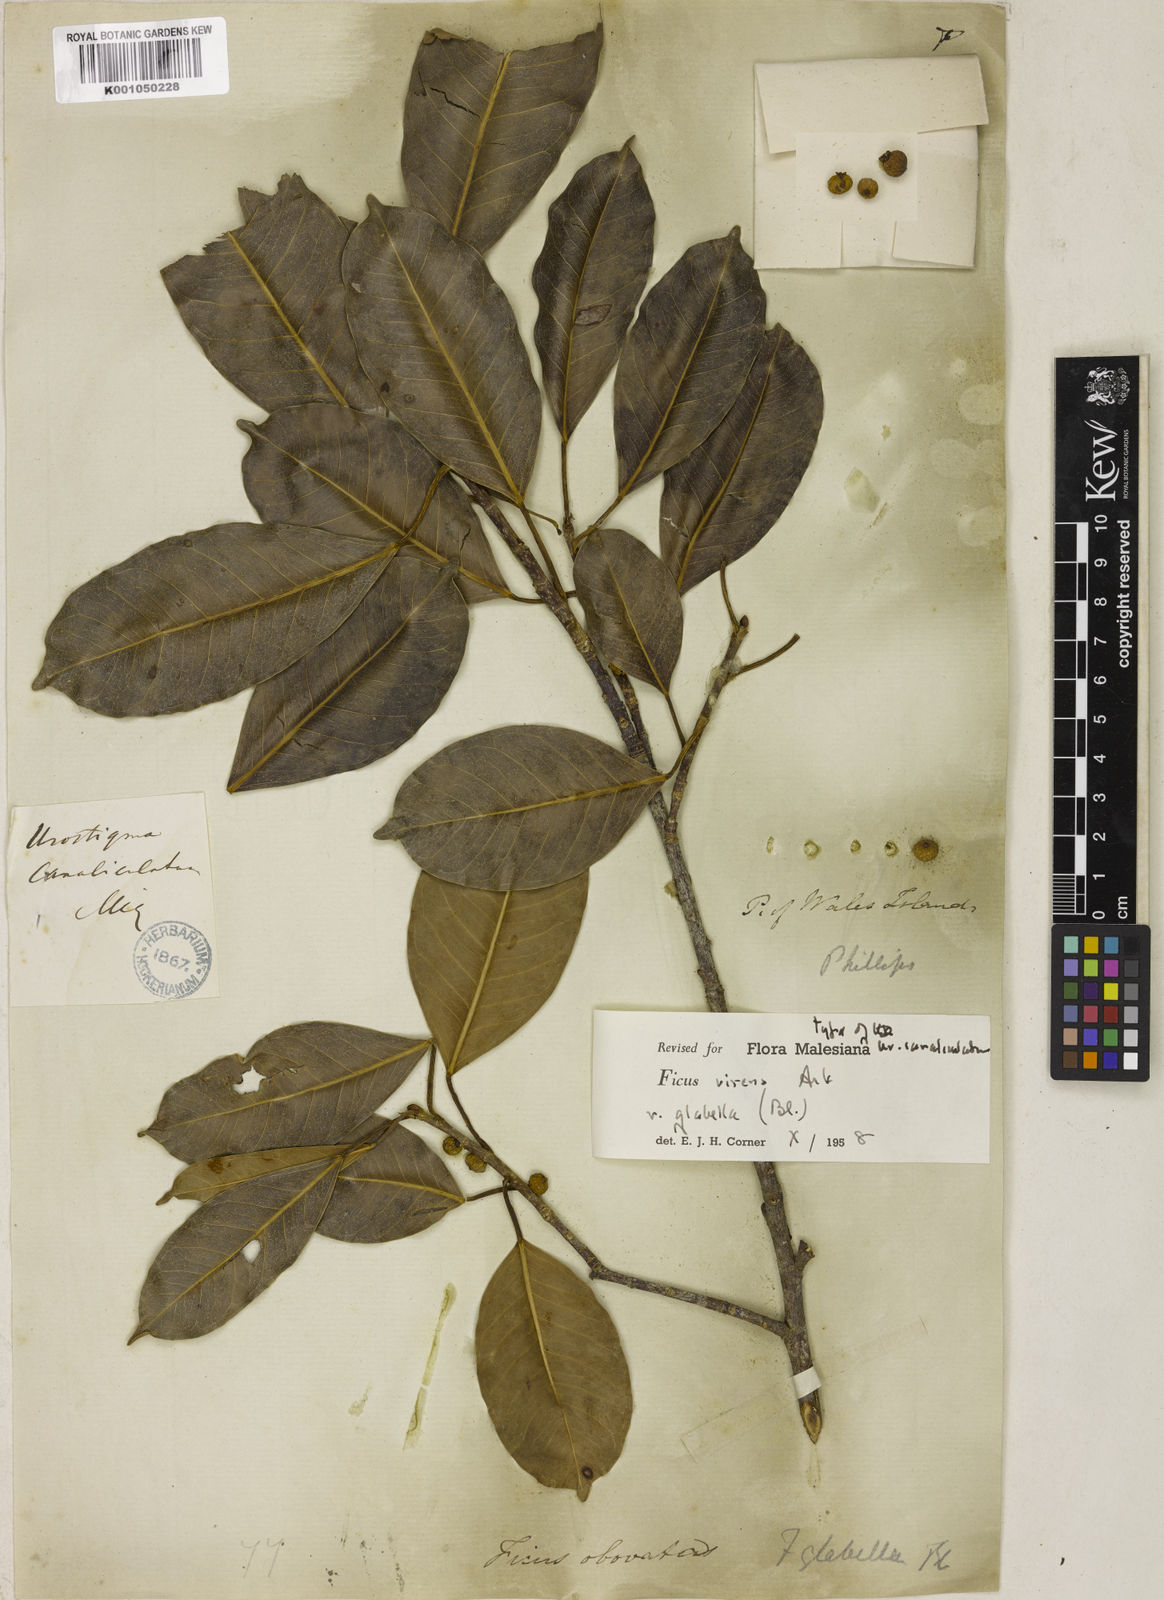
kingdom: Plantae
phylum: Tracheophyta
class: Magnoliopsida
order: Rosales
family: Moraceae
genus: Ficus
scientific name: Ficus virens
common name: Spotted fig
